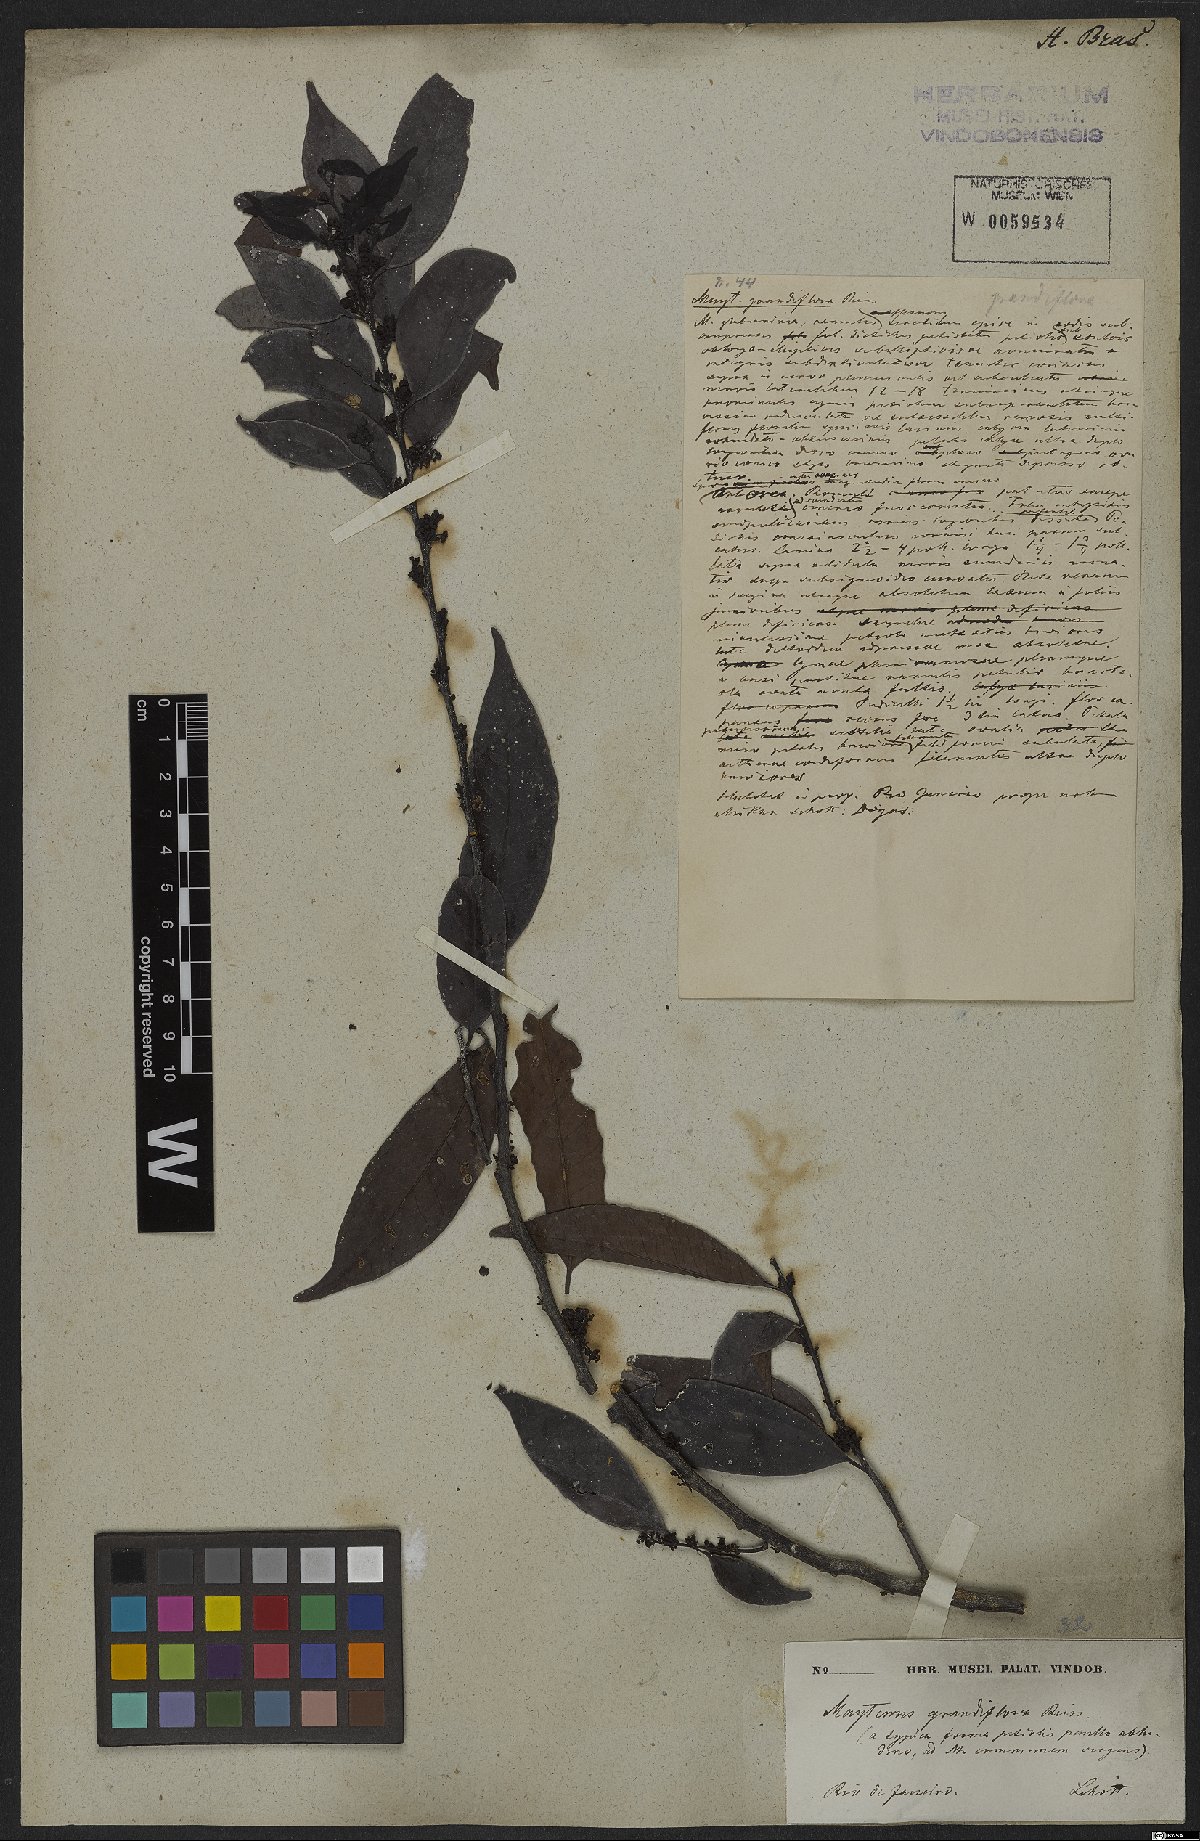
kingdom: Plantae
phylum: Tracheophyta
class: Magnoliopsida
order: Celastrales
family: Celastraceae
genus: Monteverdia
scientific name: Monteverdia communis
